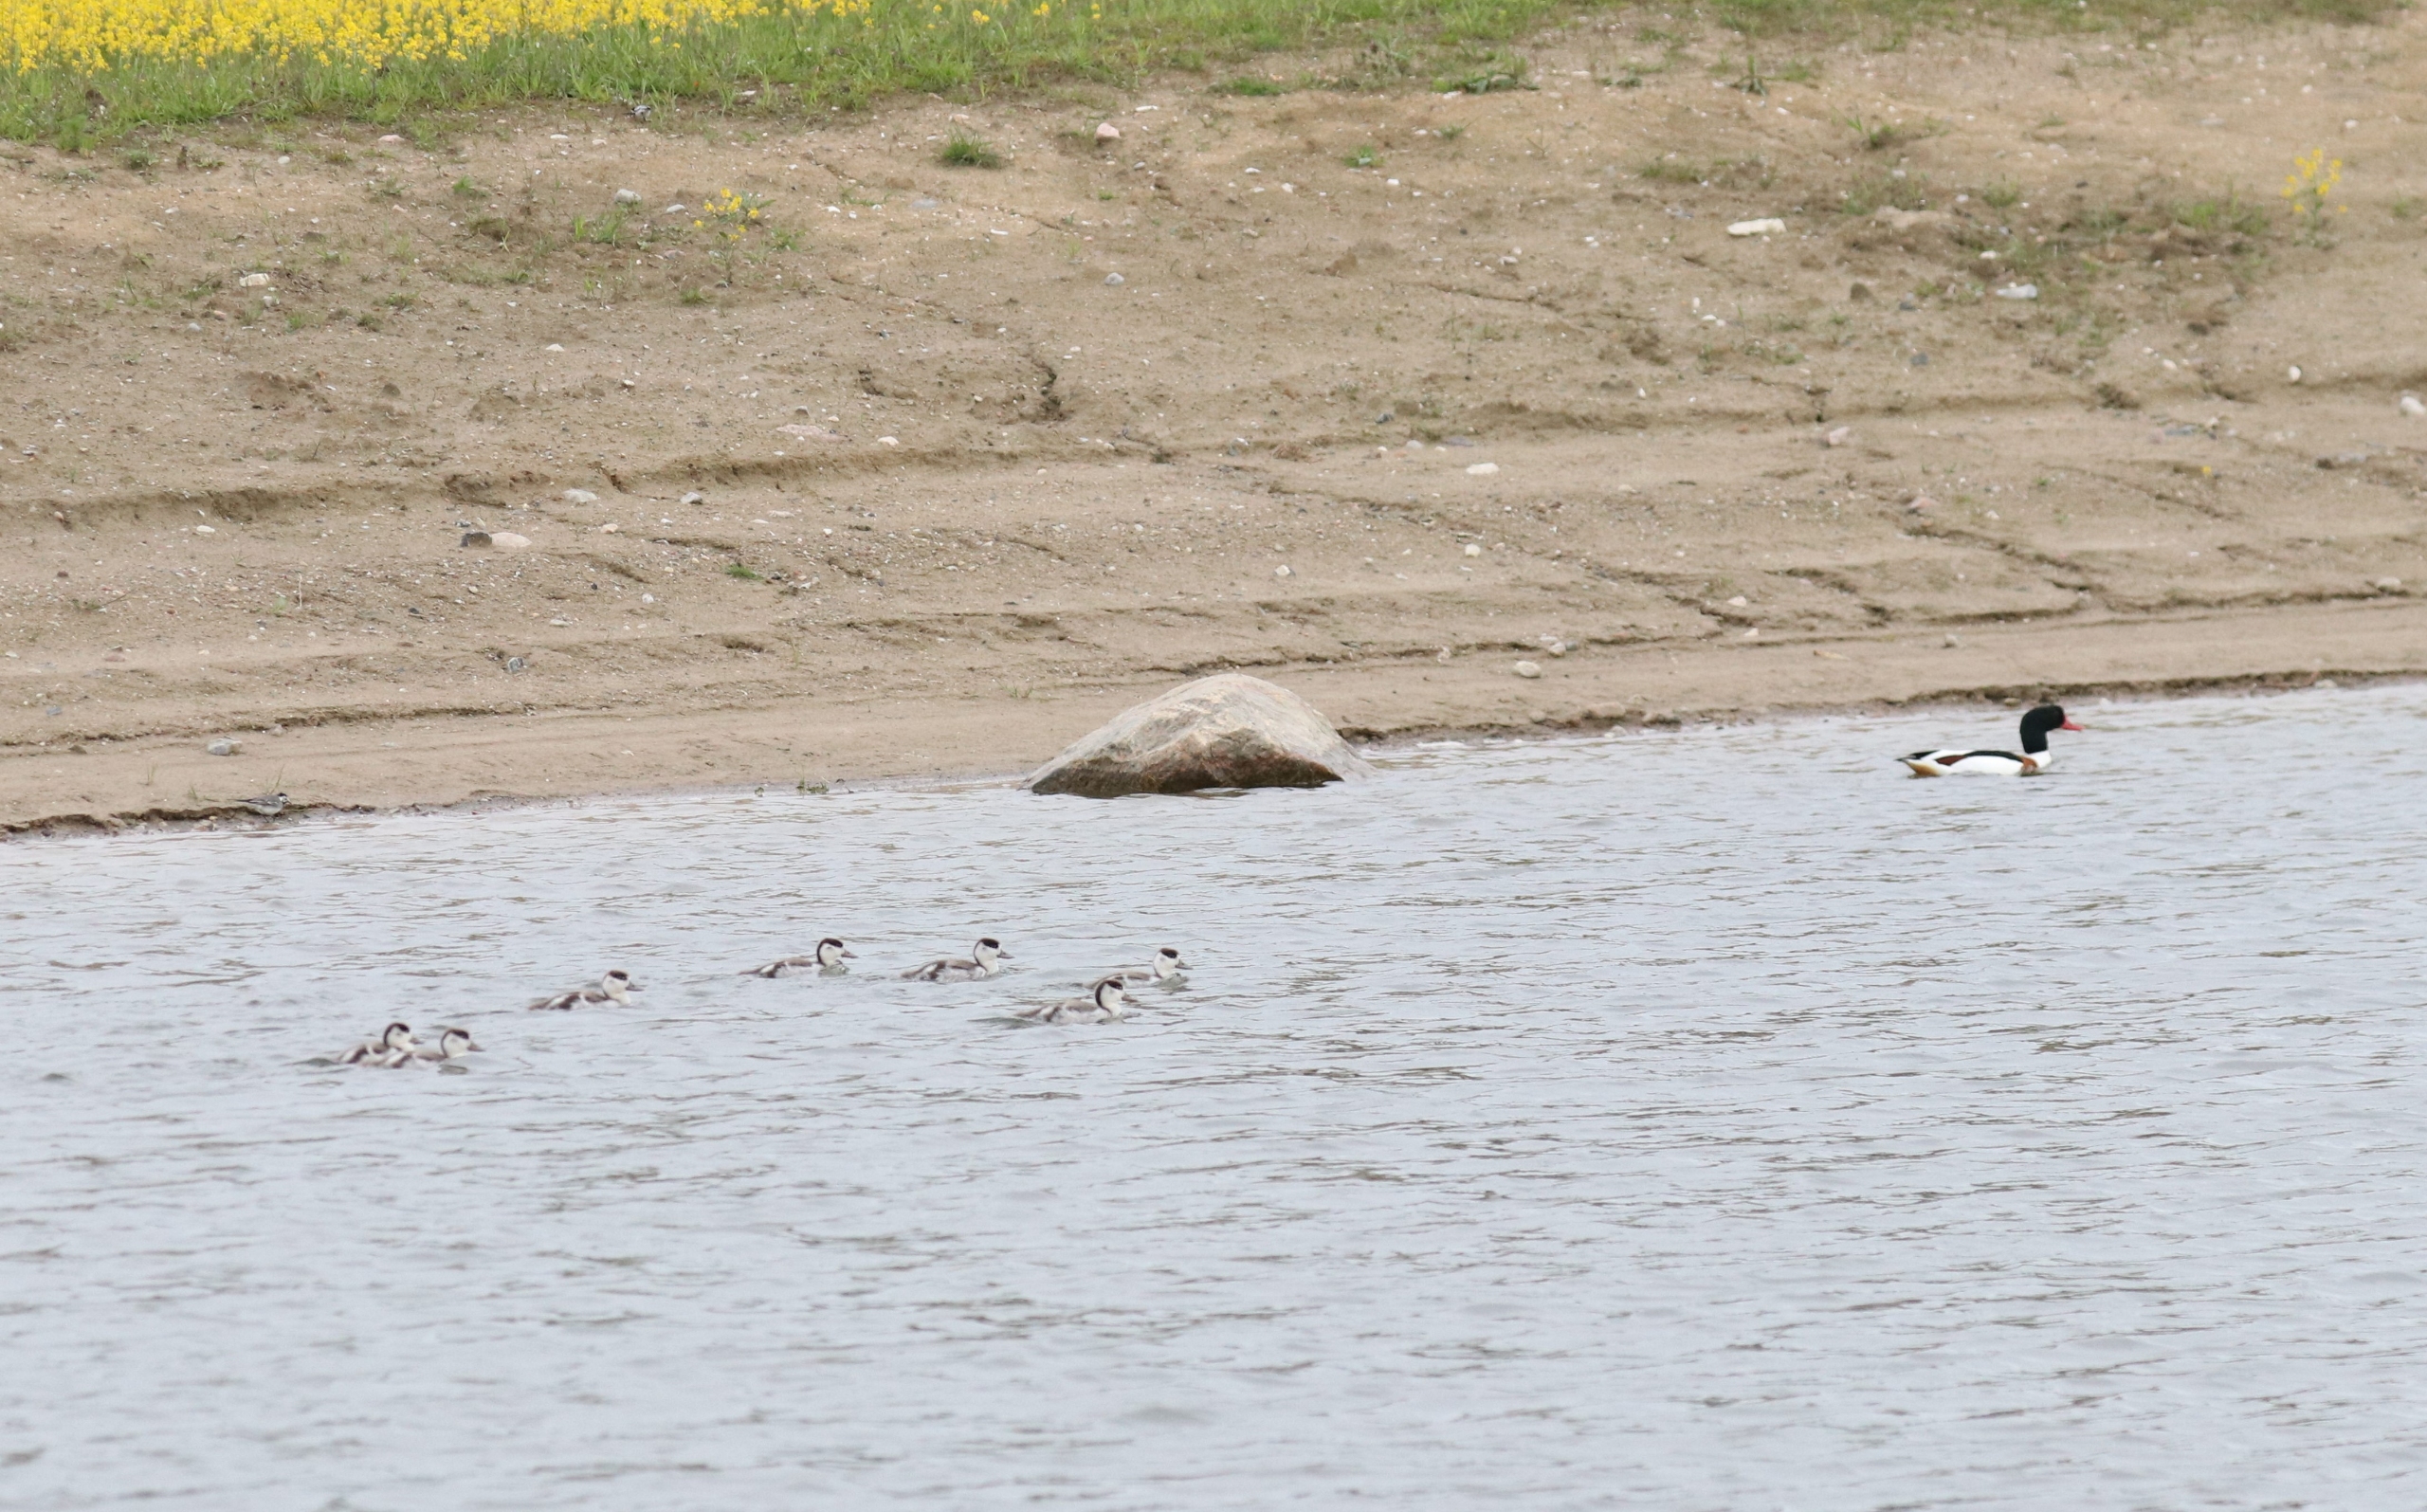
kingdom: Animalia
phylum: Chordata
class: Aves
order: Anseriformes
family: Anatidae
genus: Tadorna
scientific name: Tadorna tadorna
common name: Gravand
